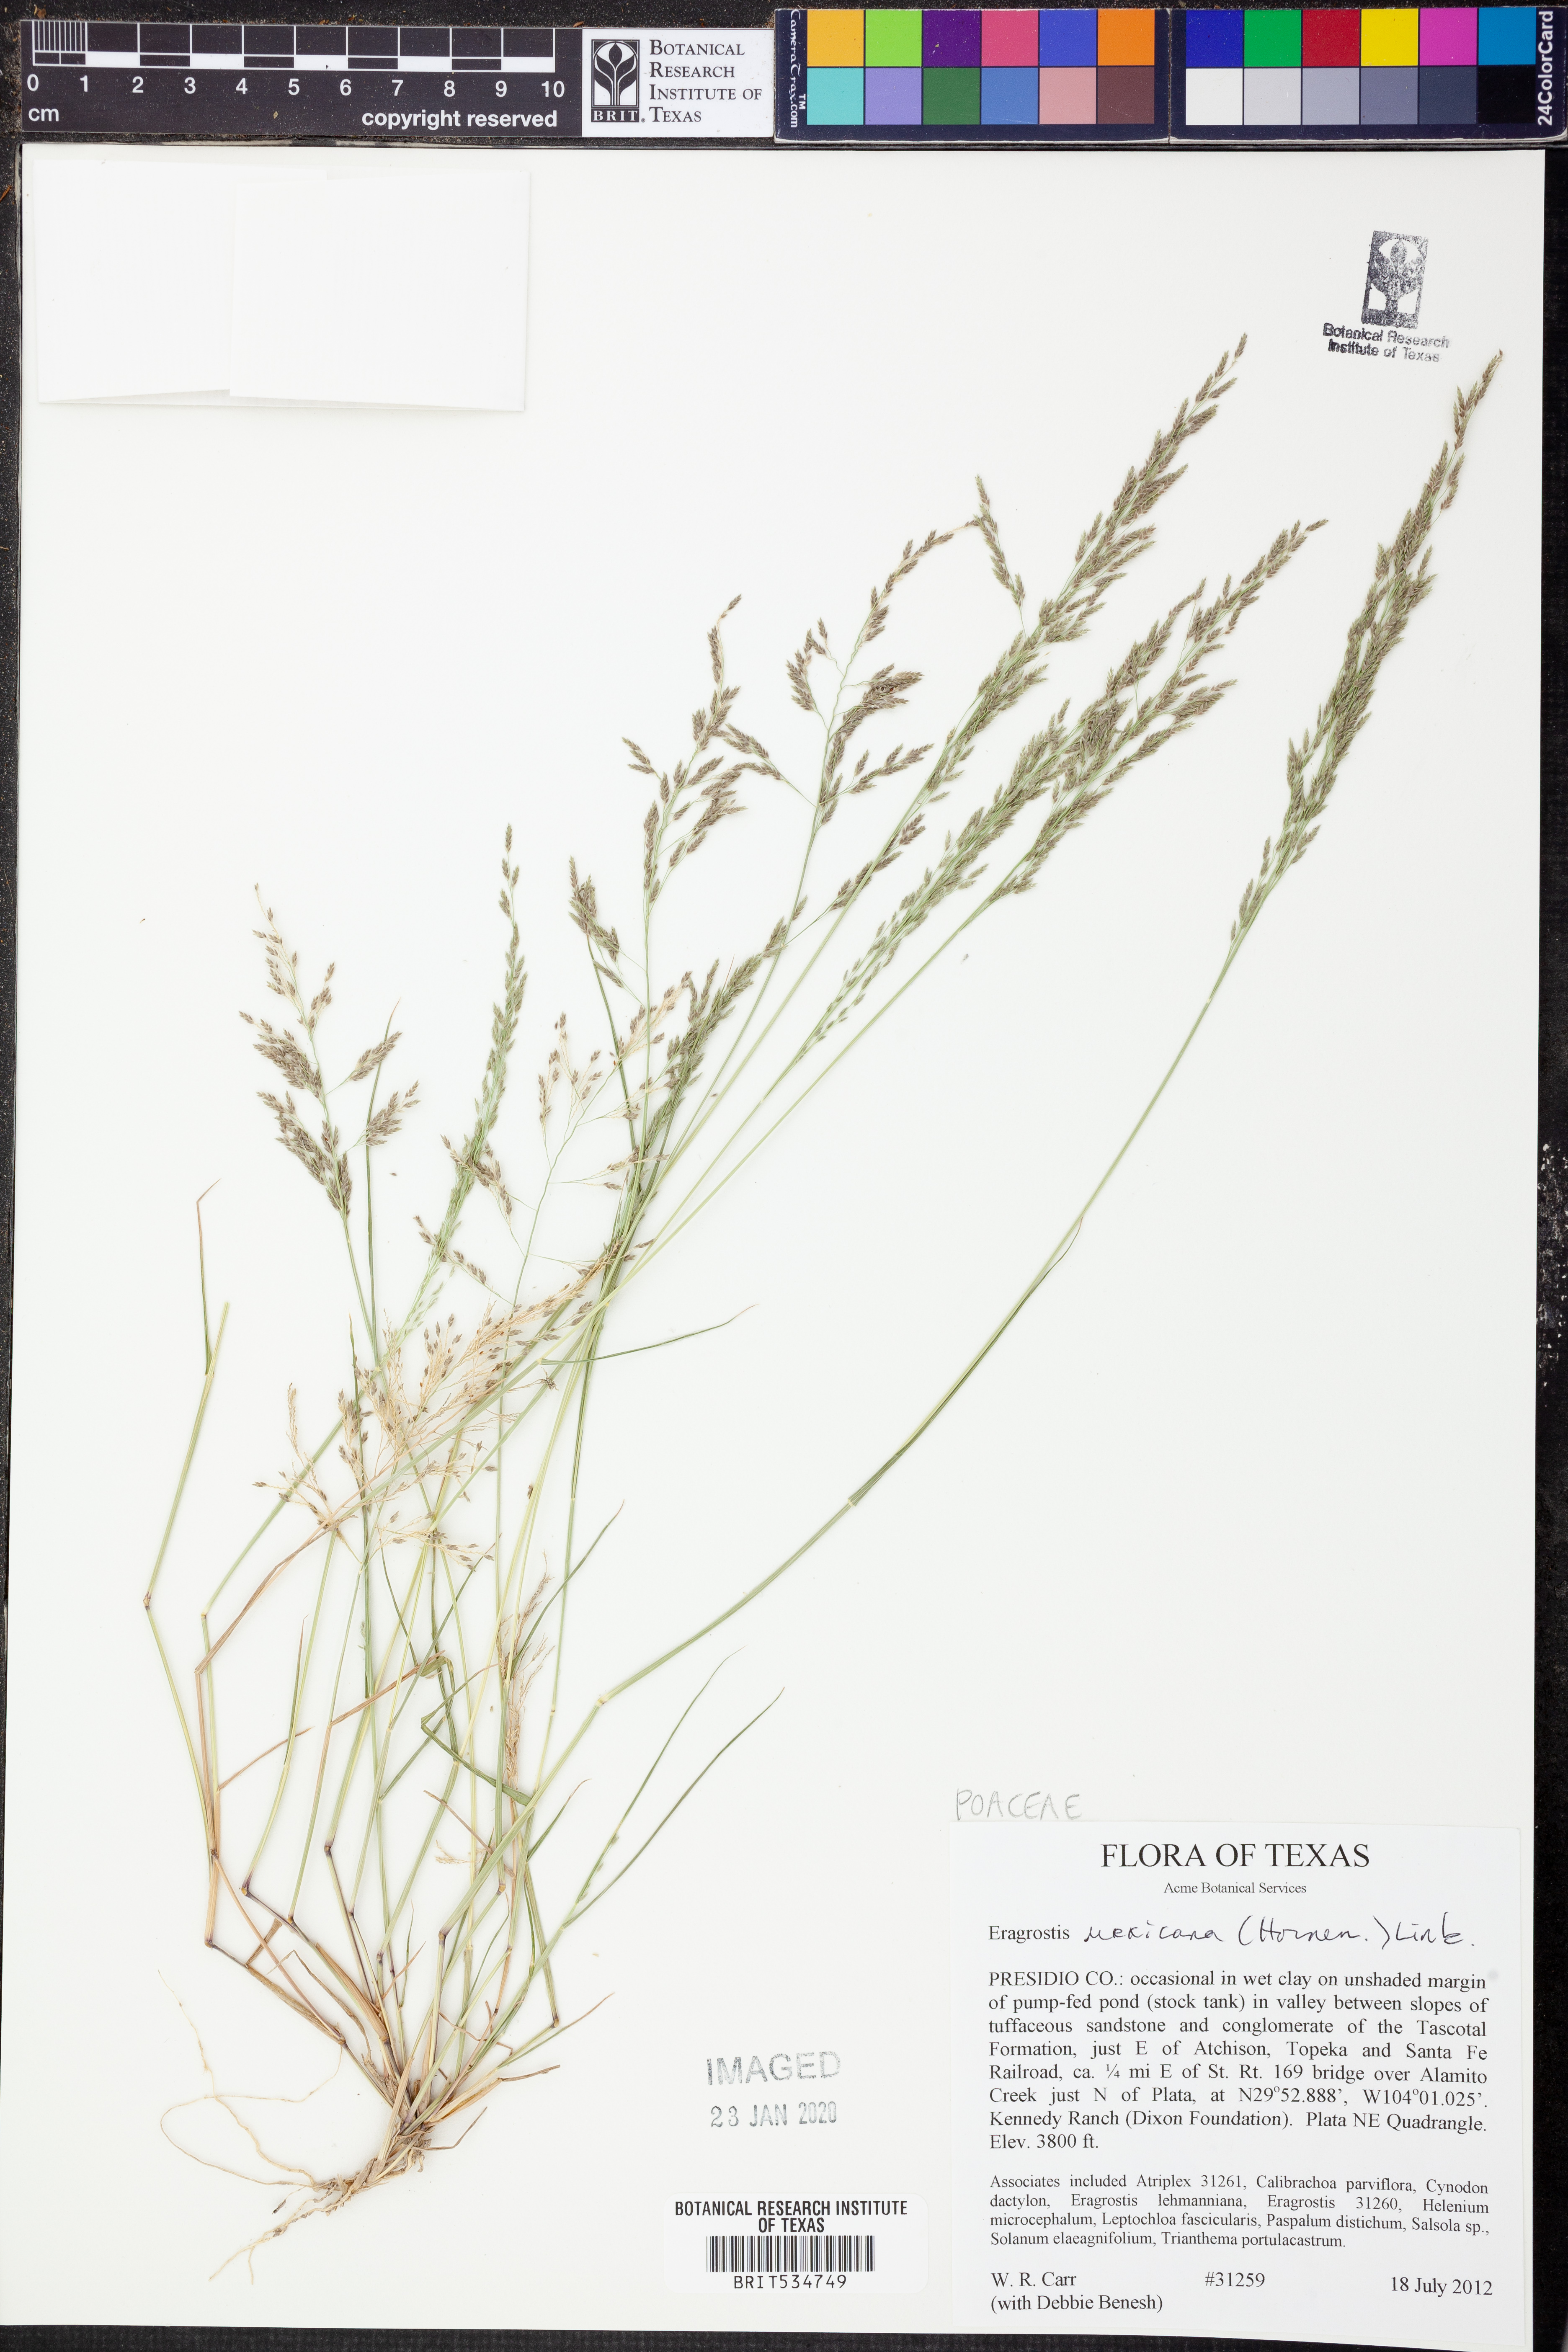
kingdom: Plantae
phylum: Tracheophyta
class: Liliopsida
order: Poales
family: Poaceae
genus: Eragrostis
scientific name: Eragrostis mexicana
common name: Mexican love grass
